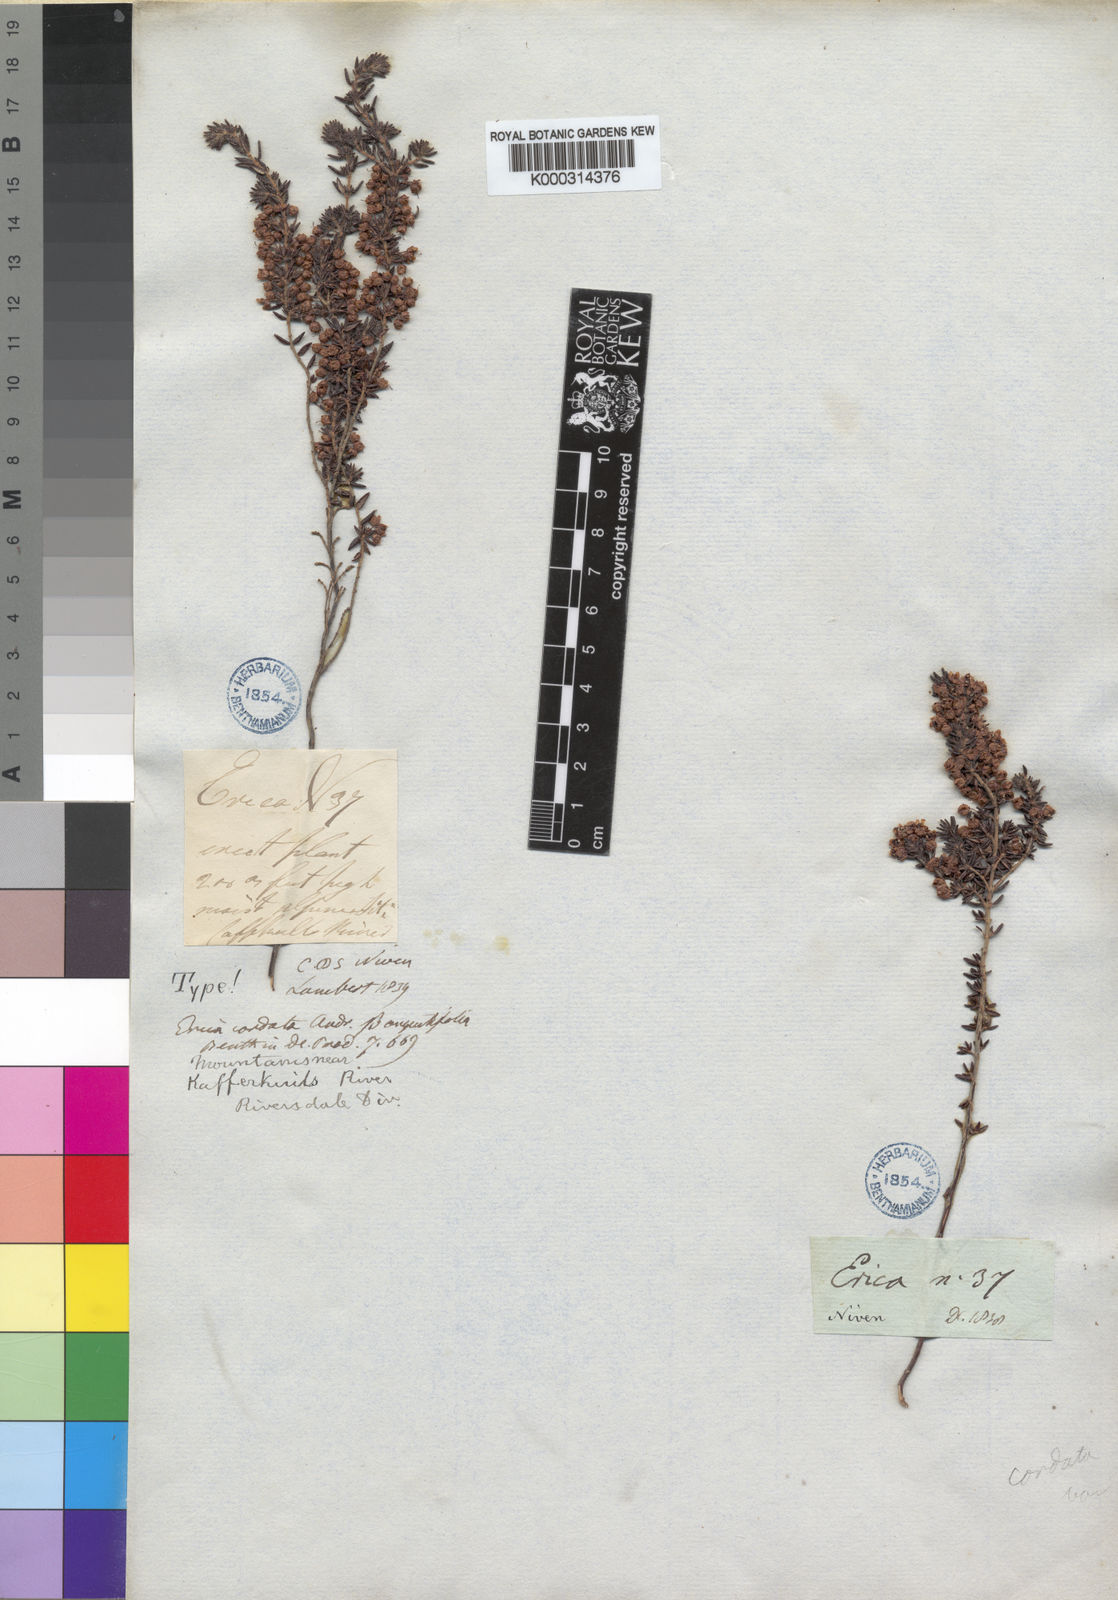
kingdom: Plantae
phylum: Tracheophyta
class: Magnoliopsida
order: Ericales
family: Ericaceae
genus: Erica
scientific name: Erica cordata
